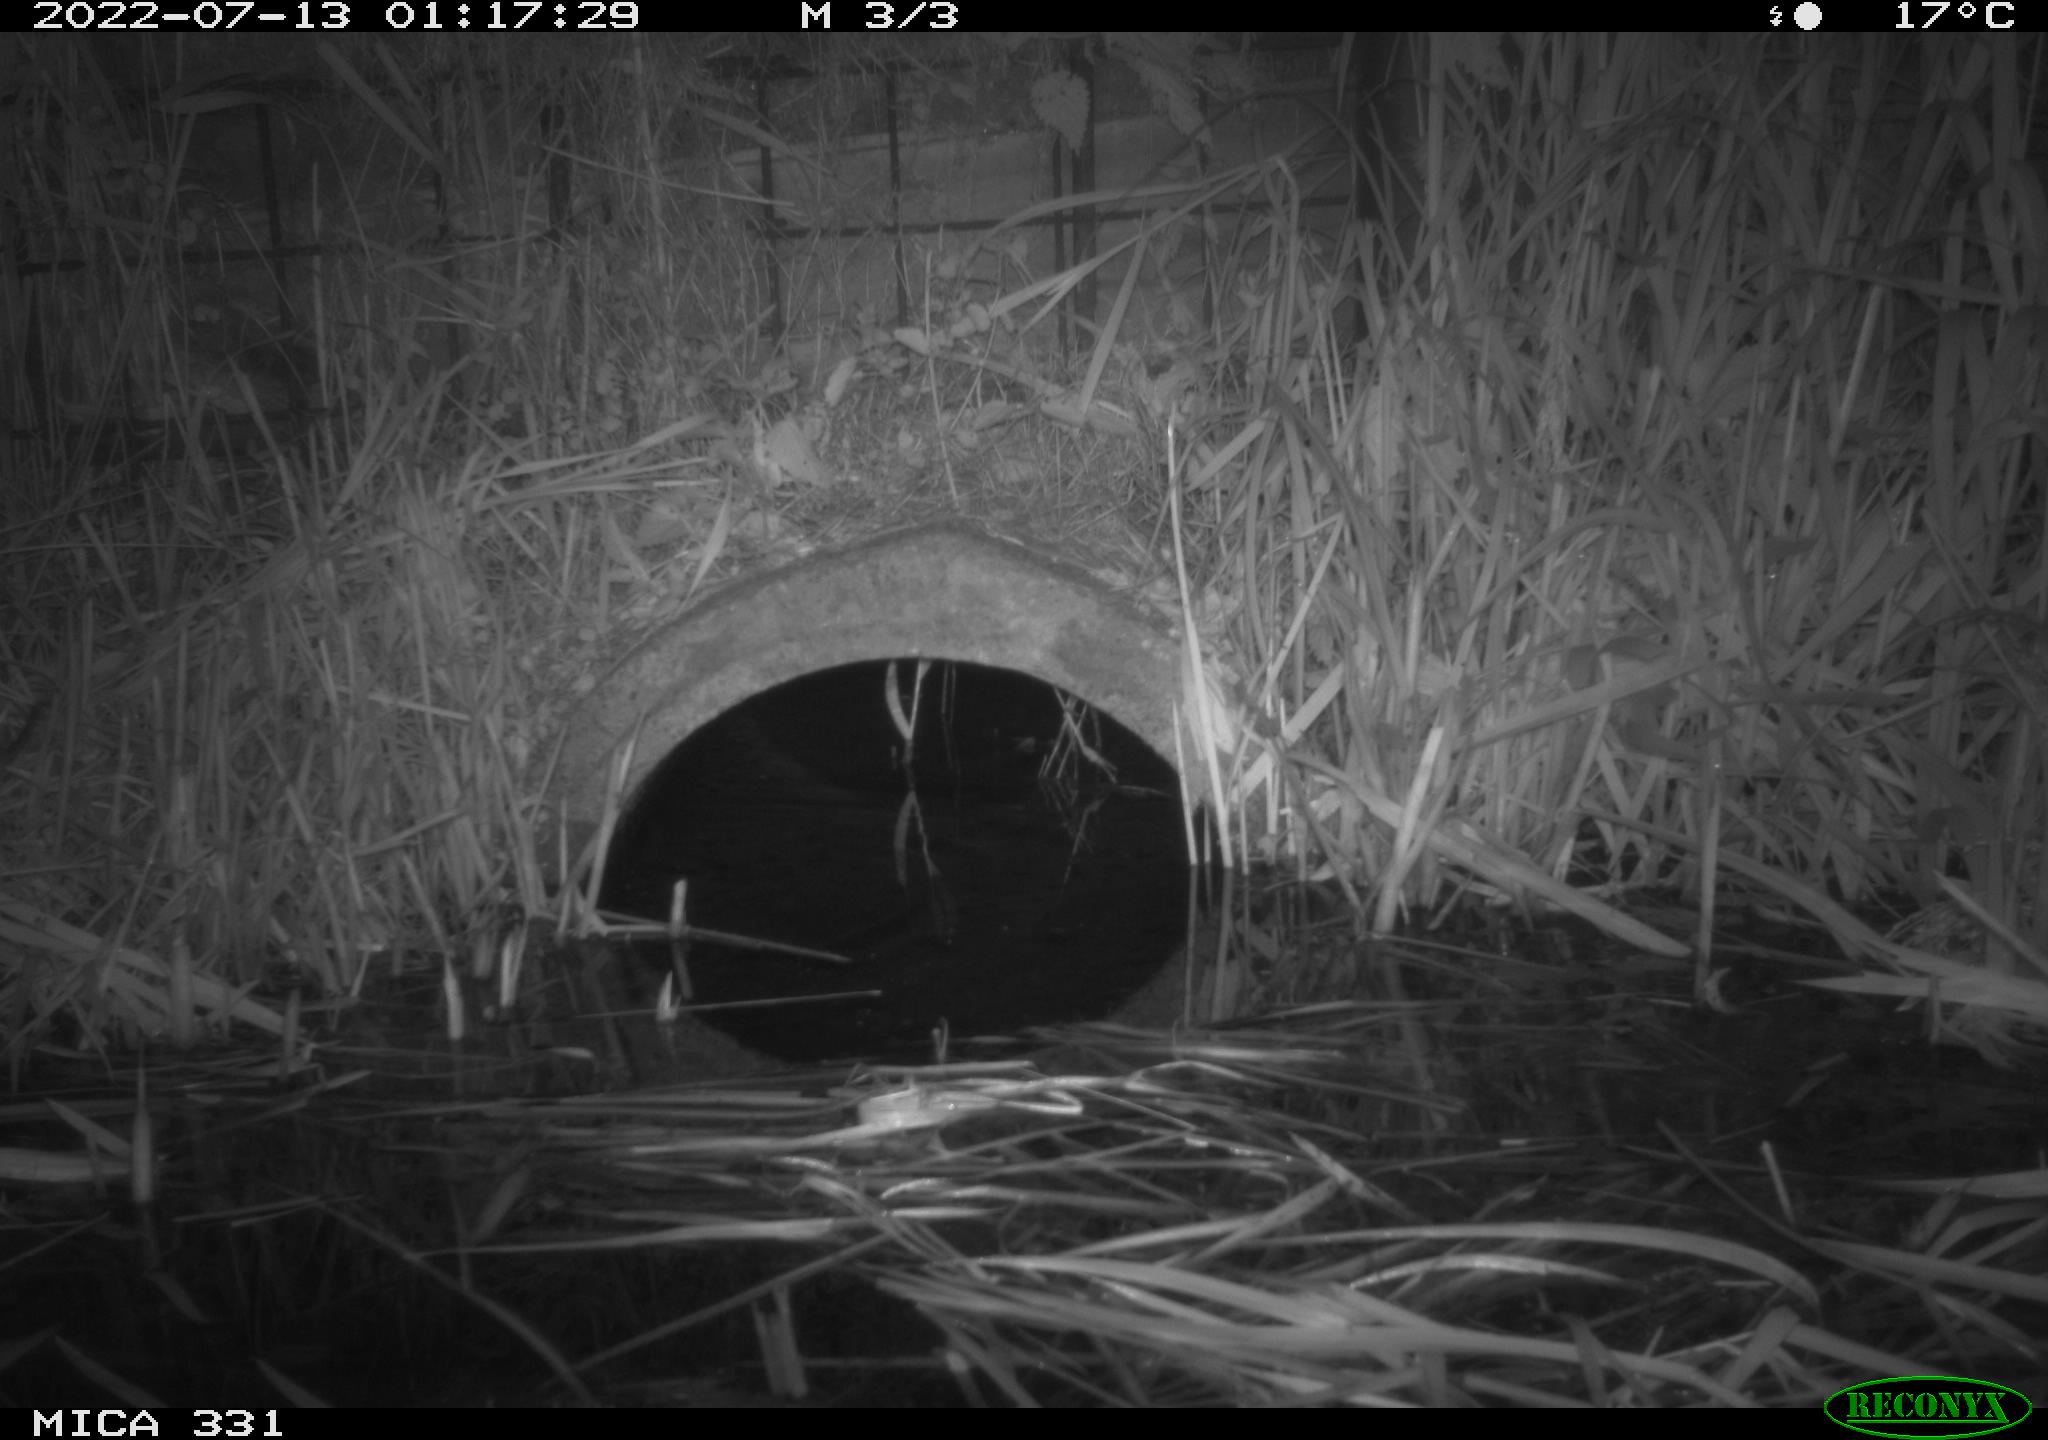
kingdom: Animalia
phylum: Chordata
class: Mammalia
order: Rodentia
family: Muridae
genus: Rattus
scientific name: Rattus norvegicus
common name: Brown rat
